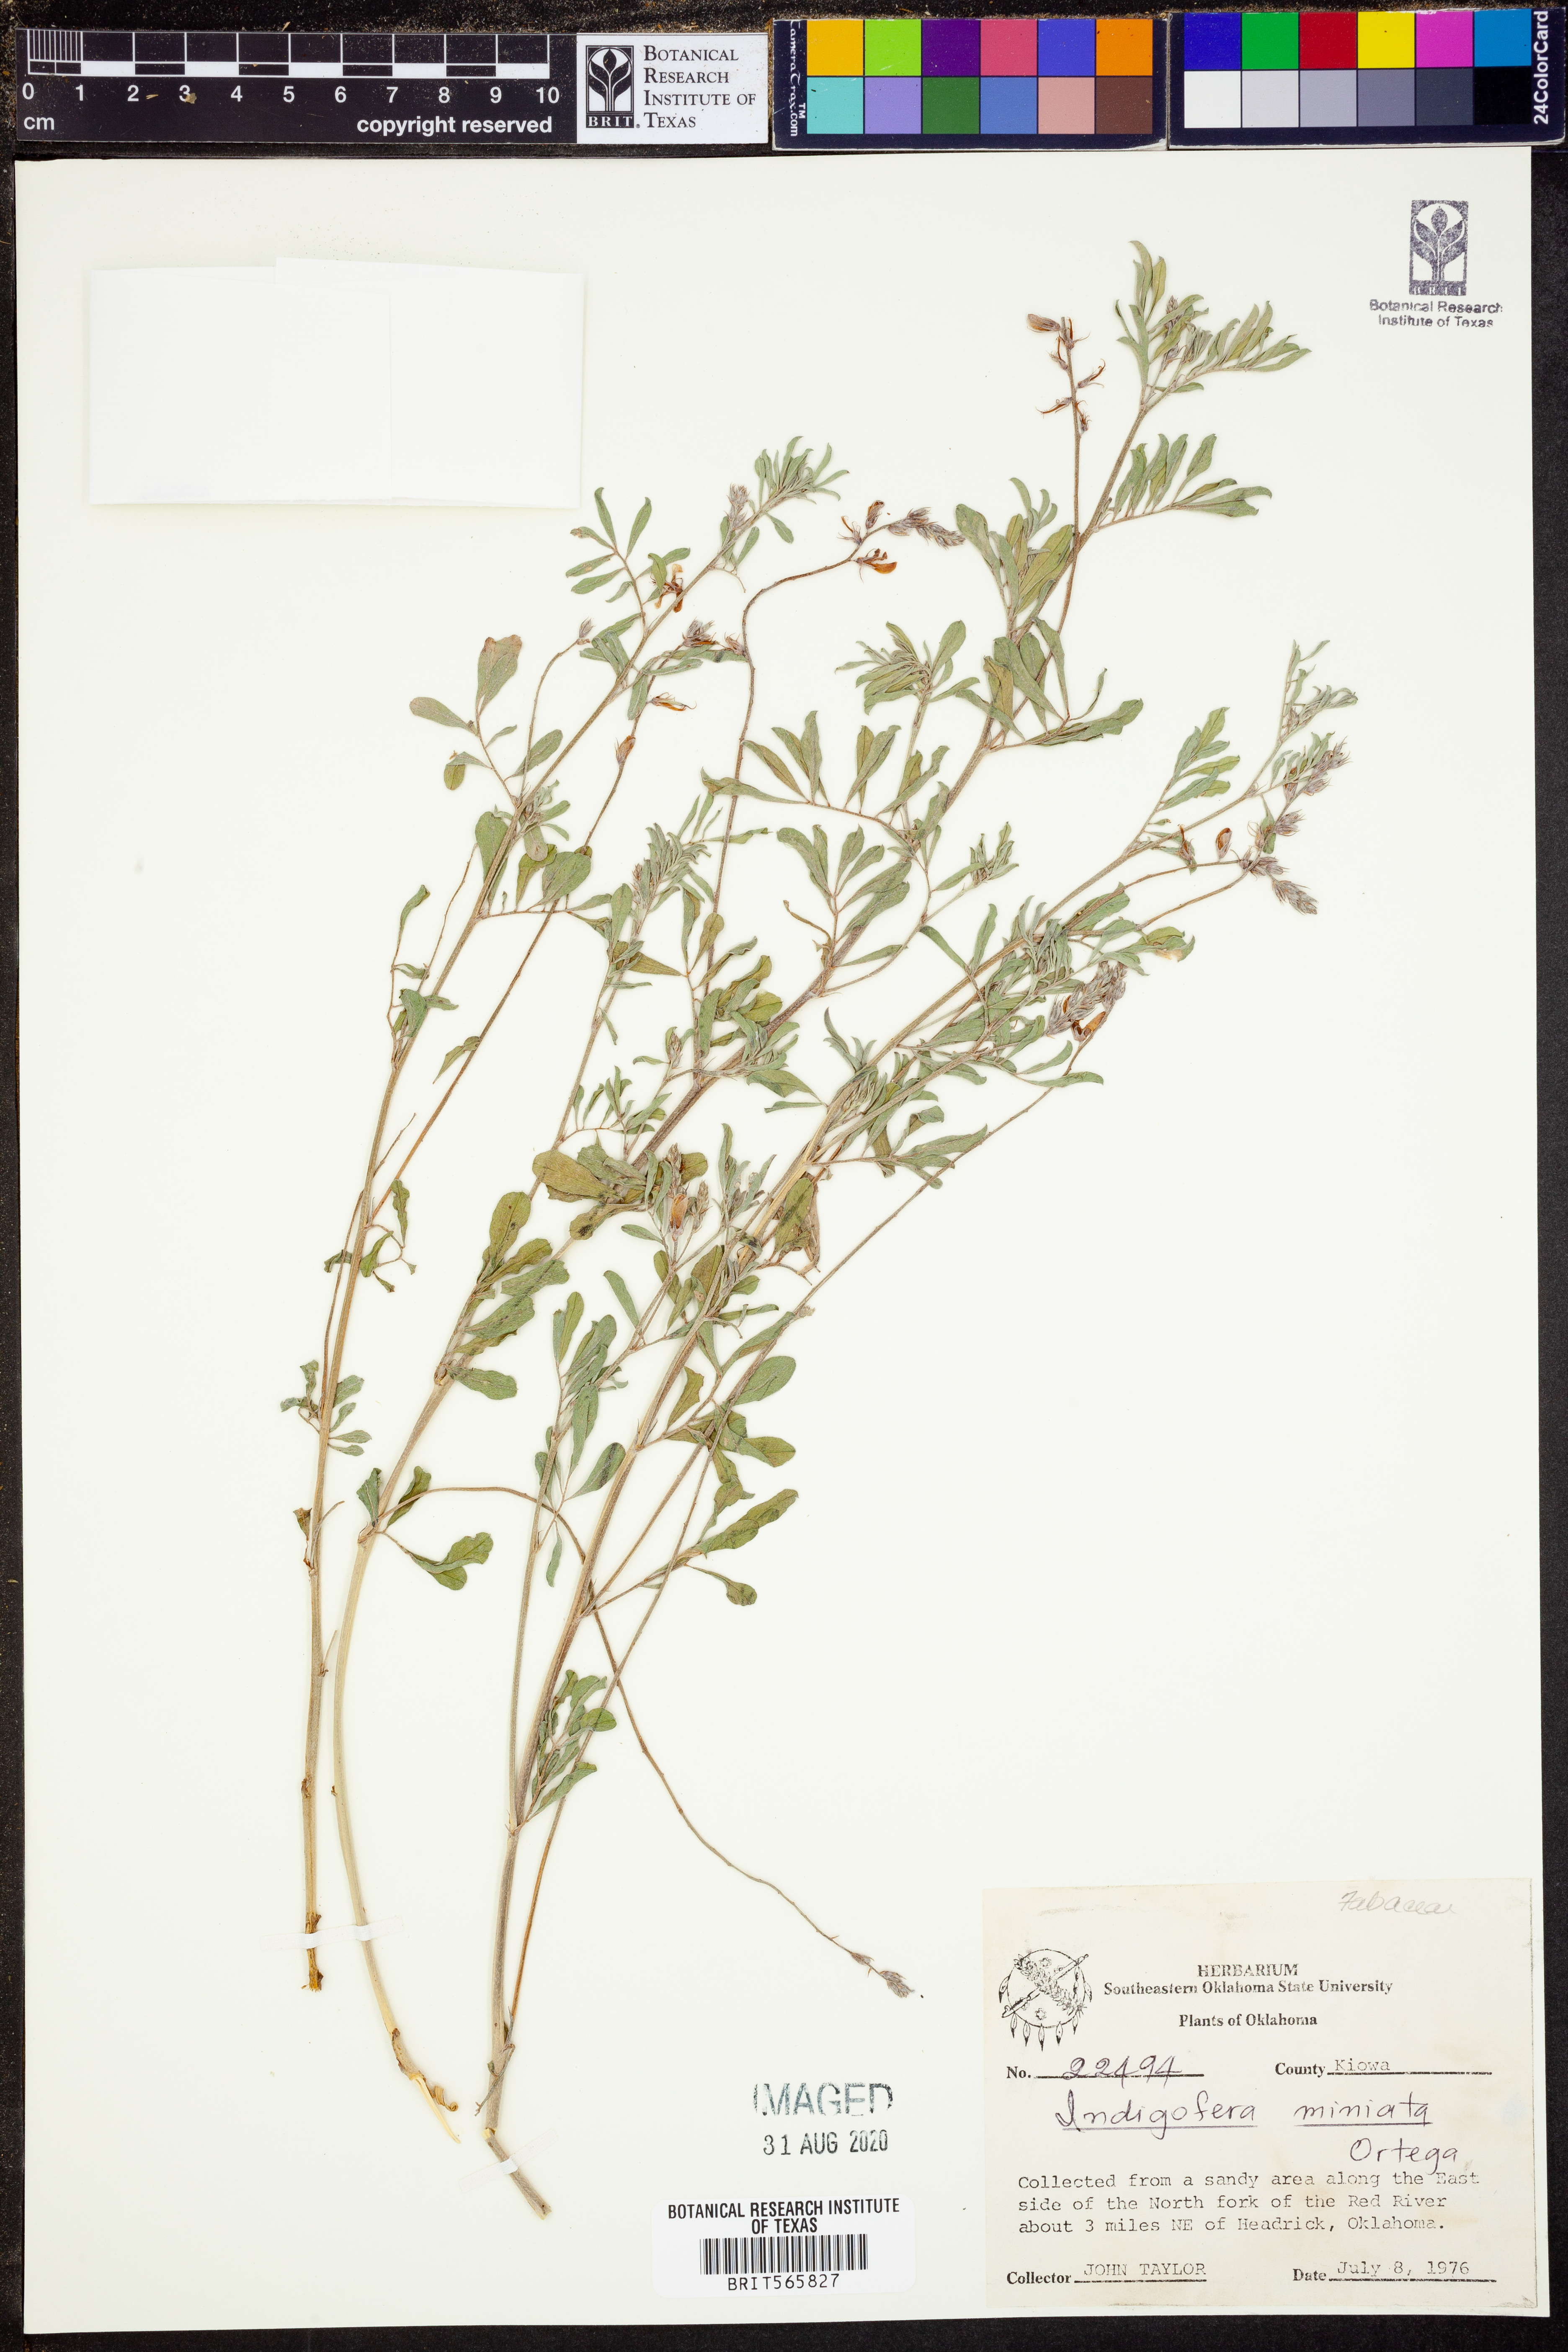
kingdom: Plantae
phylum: Tracheophyta
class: Magnoliopsida
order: Fabales
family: Fabaceae
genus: Indigofera
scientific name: Indigofera miniata
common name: Coast indigo
